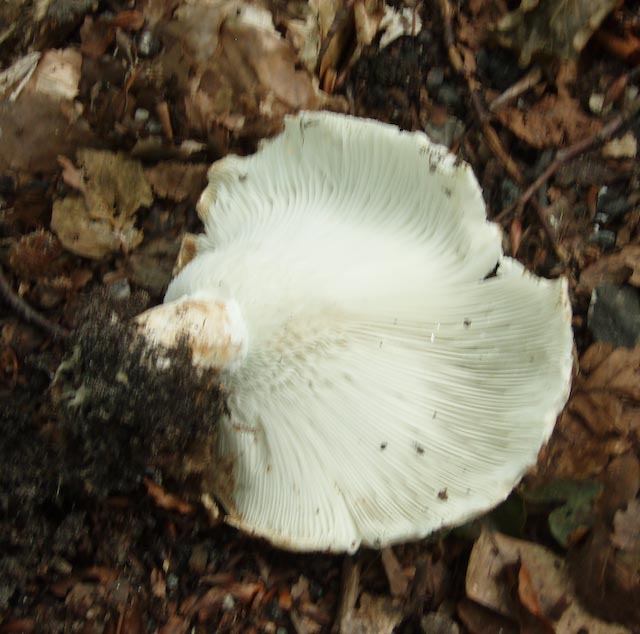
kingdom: Fungi
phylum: Basidiomycota
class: Agaricomycetes
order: Russulales
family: Russulaceae
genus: Russula
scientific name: Russula chloroides
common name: grønhalset tragt-skørhat
